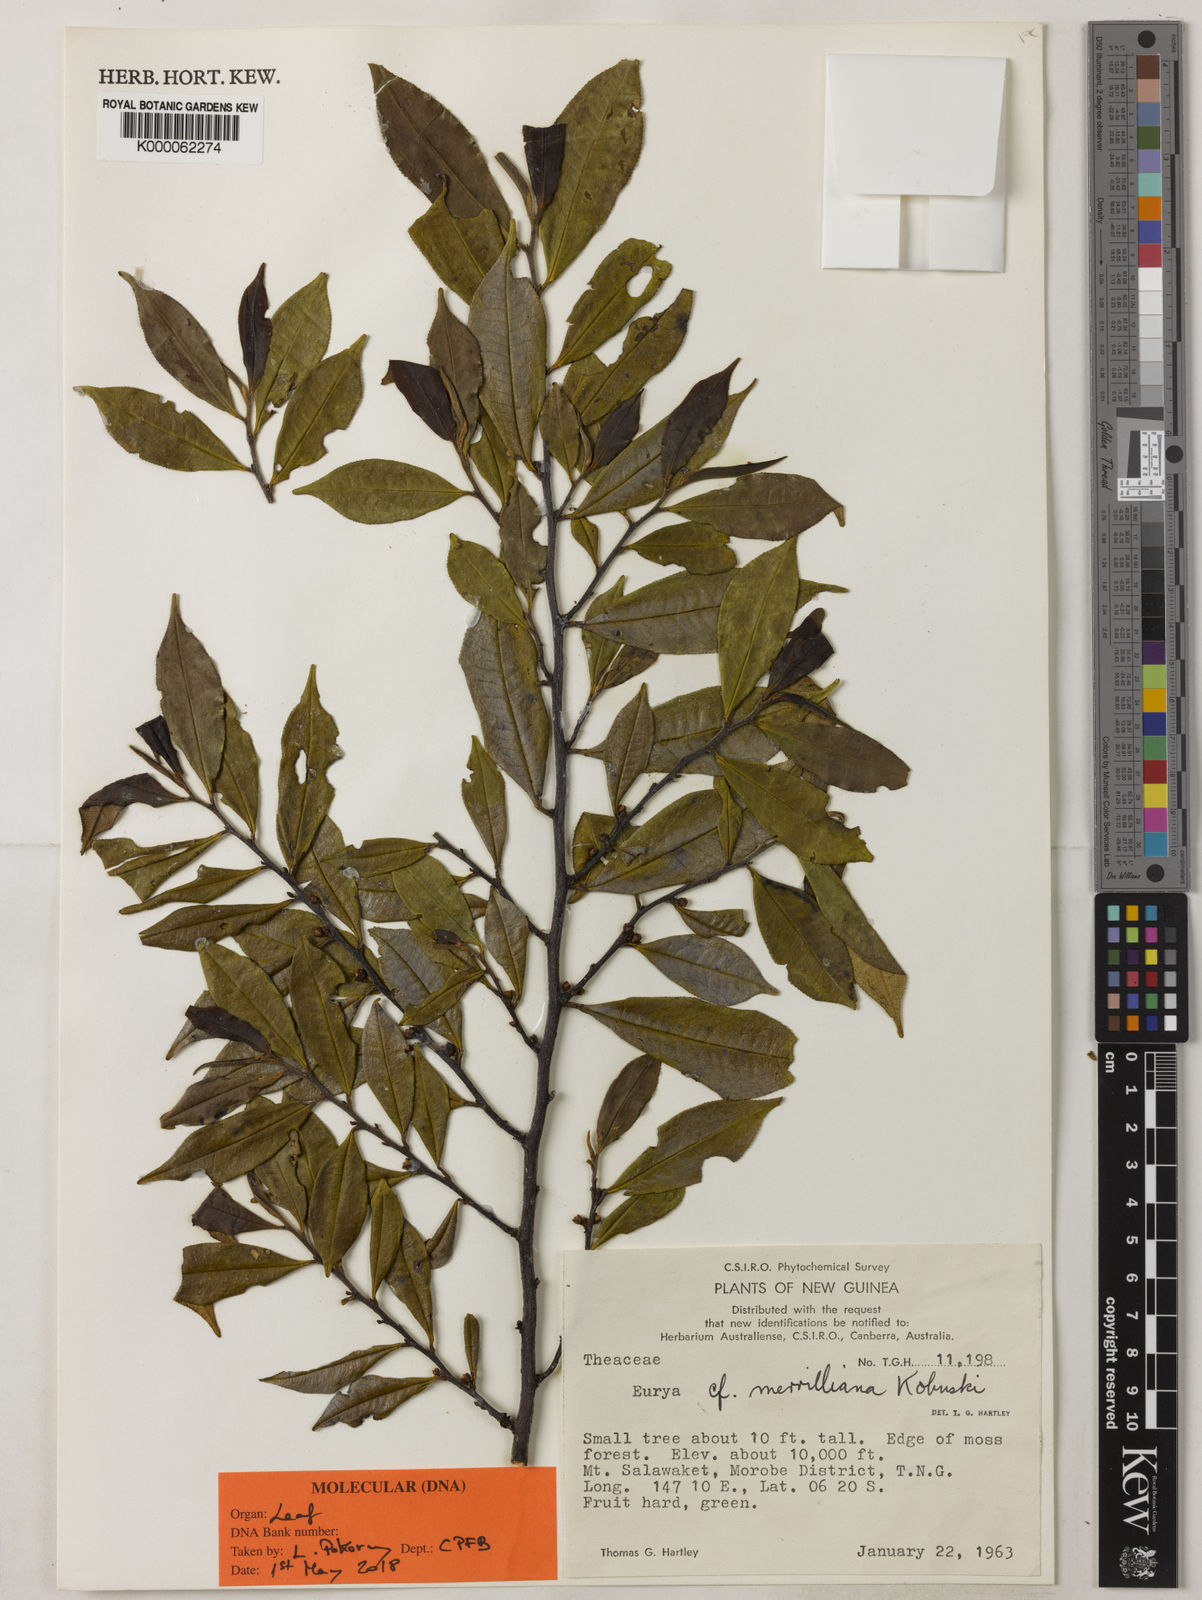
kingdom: Plantae
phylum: Tracheophyta
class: Magnoliopsida
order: Ericales
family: Pentaphylacaceae
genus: Archboldiodendron
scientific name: Archboldiodendron calosericeum
